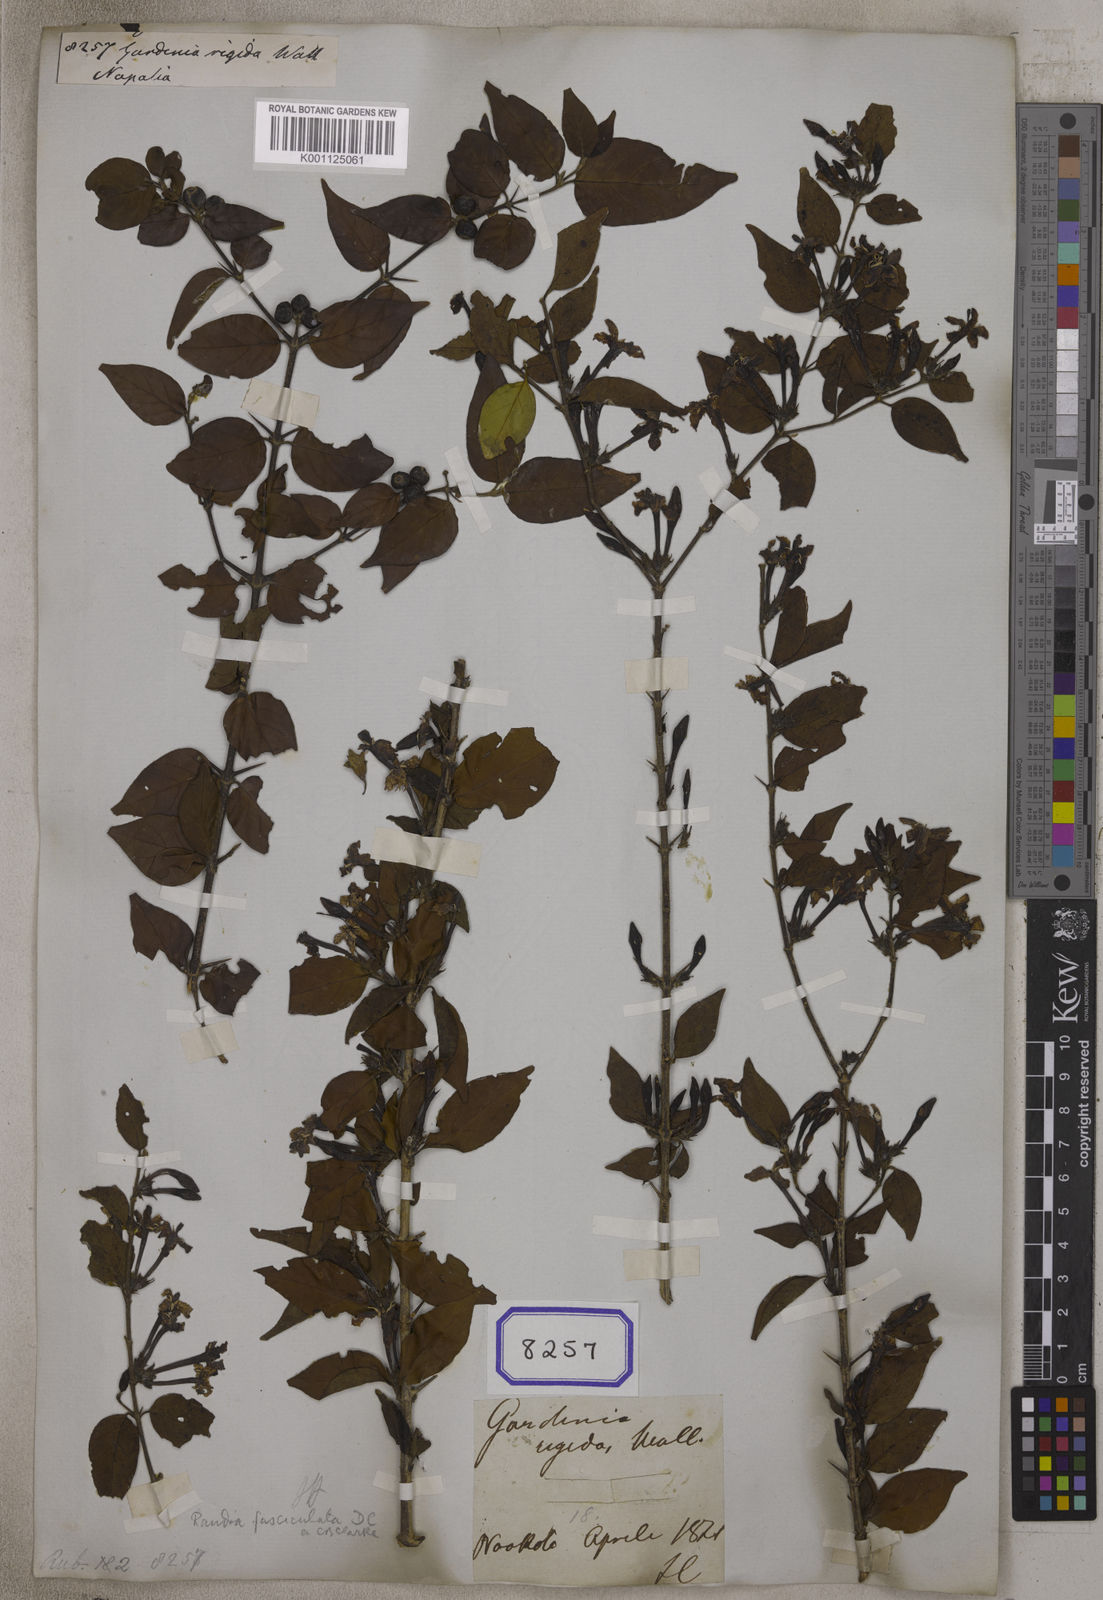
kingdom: Plantae
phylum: Tracheophyta
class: Magnoliopsida
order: Gentianales
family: Rubiaceae
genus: Himalrandia
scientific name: Himalrandia tetrasperma
